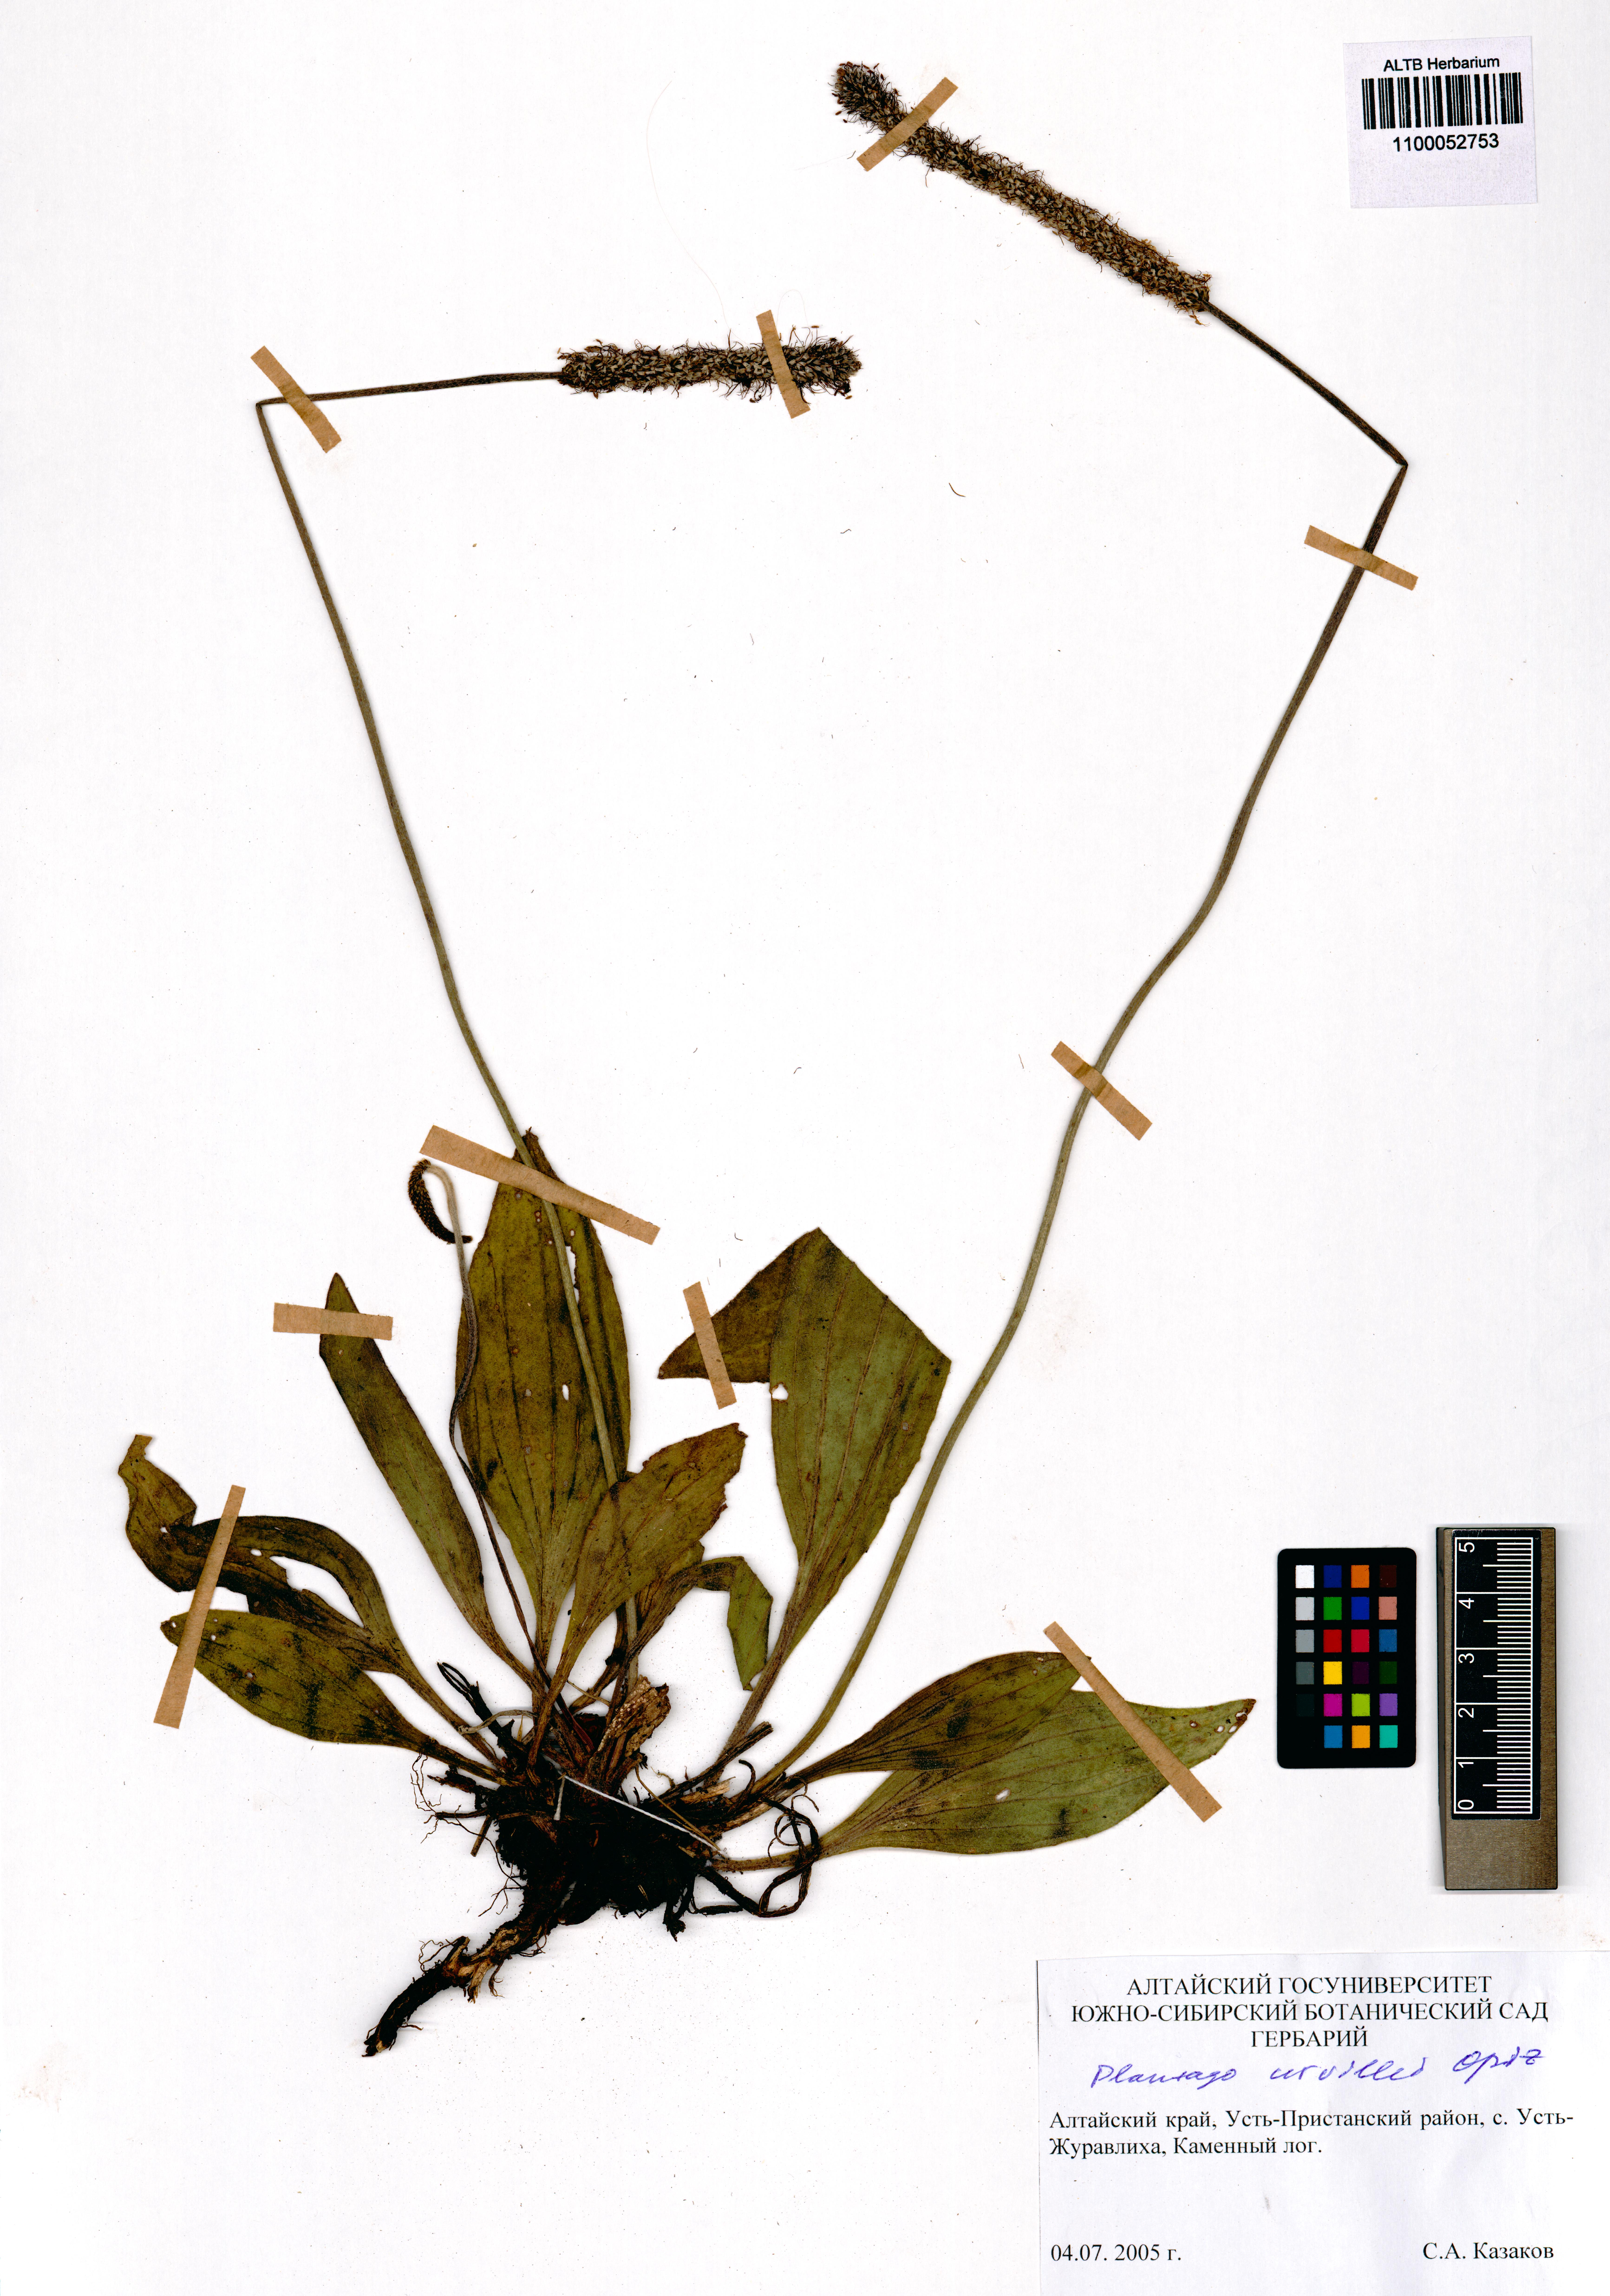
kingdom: Plantae
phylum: Tracheophyta
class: Magnoliopsida
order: Lamiales
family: Plantaginaceae
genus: Plantago
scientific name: Plantago urvillei
